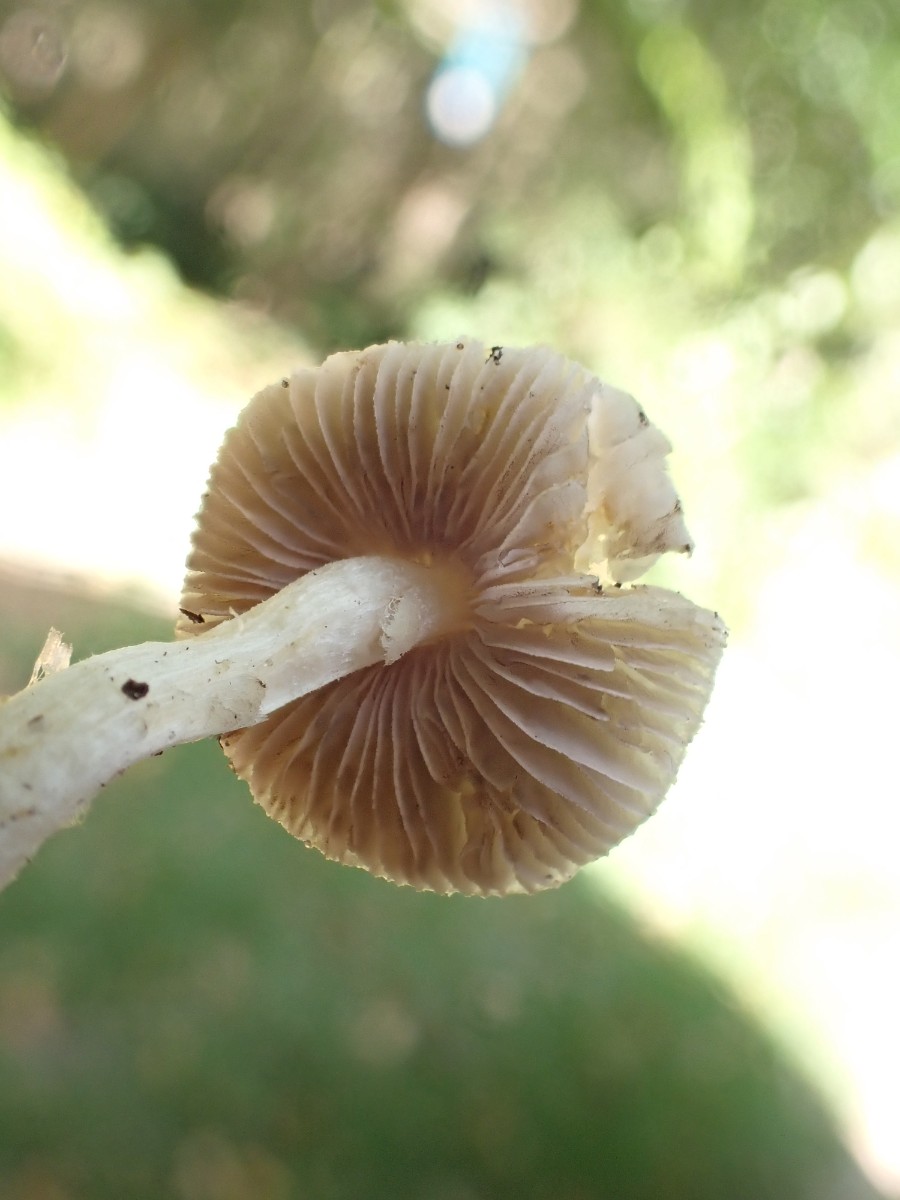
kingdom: Fungi
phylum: Basidiomycota
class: Agaricomycetes
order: Agaricales
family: Inocybaceae
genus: Inocybe
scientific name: Inocybe
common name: almindelig trævlhat
